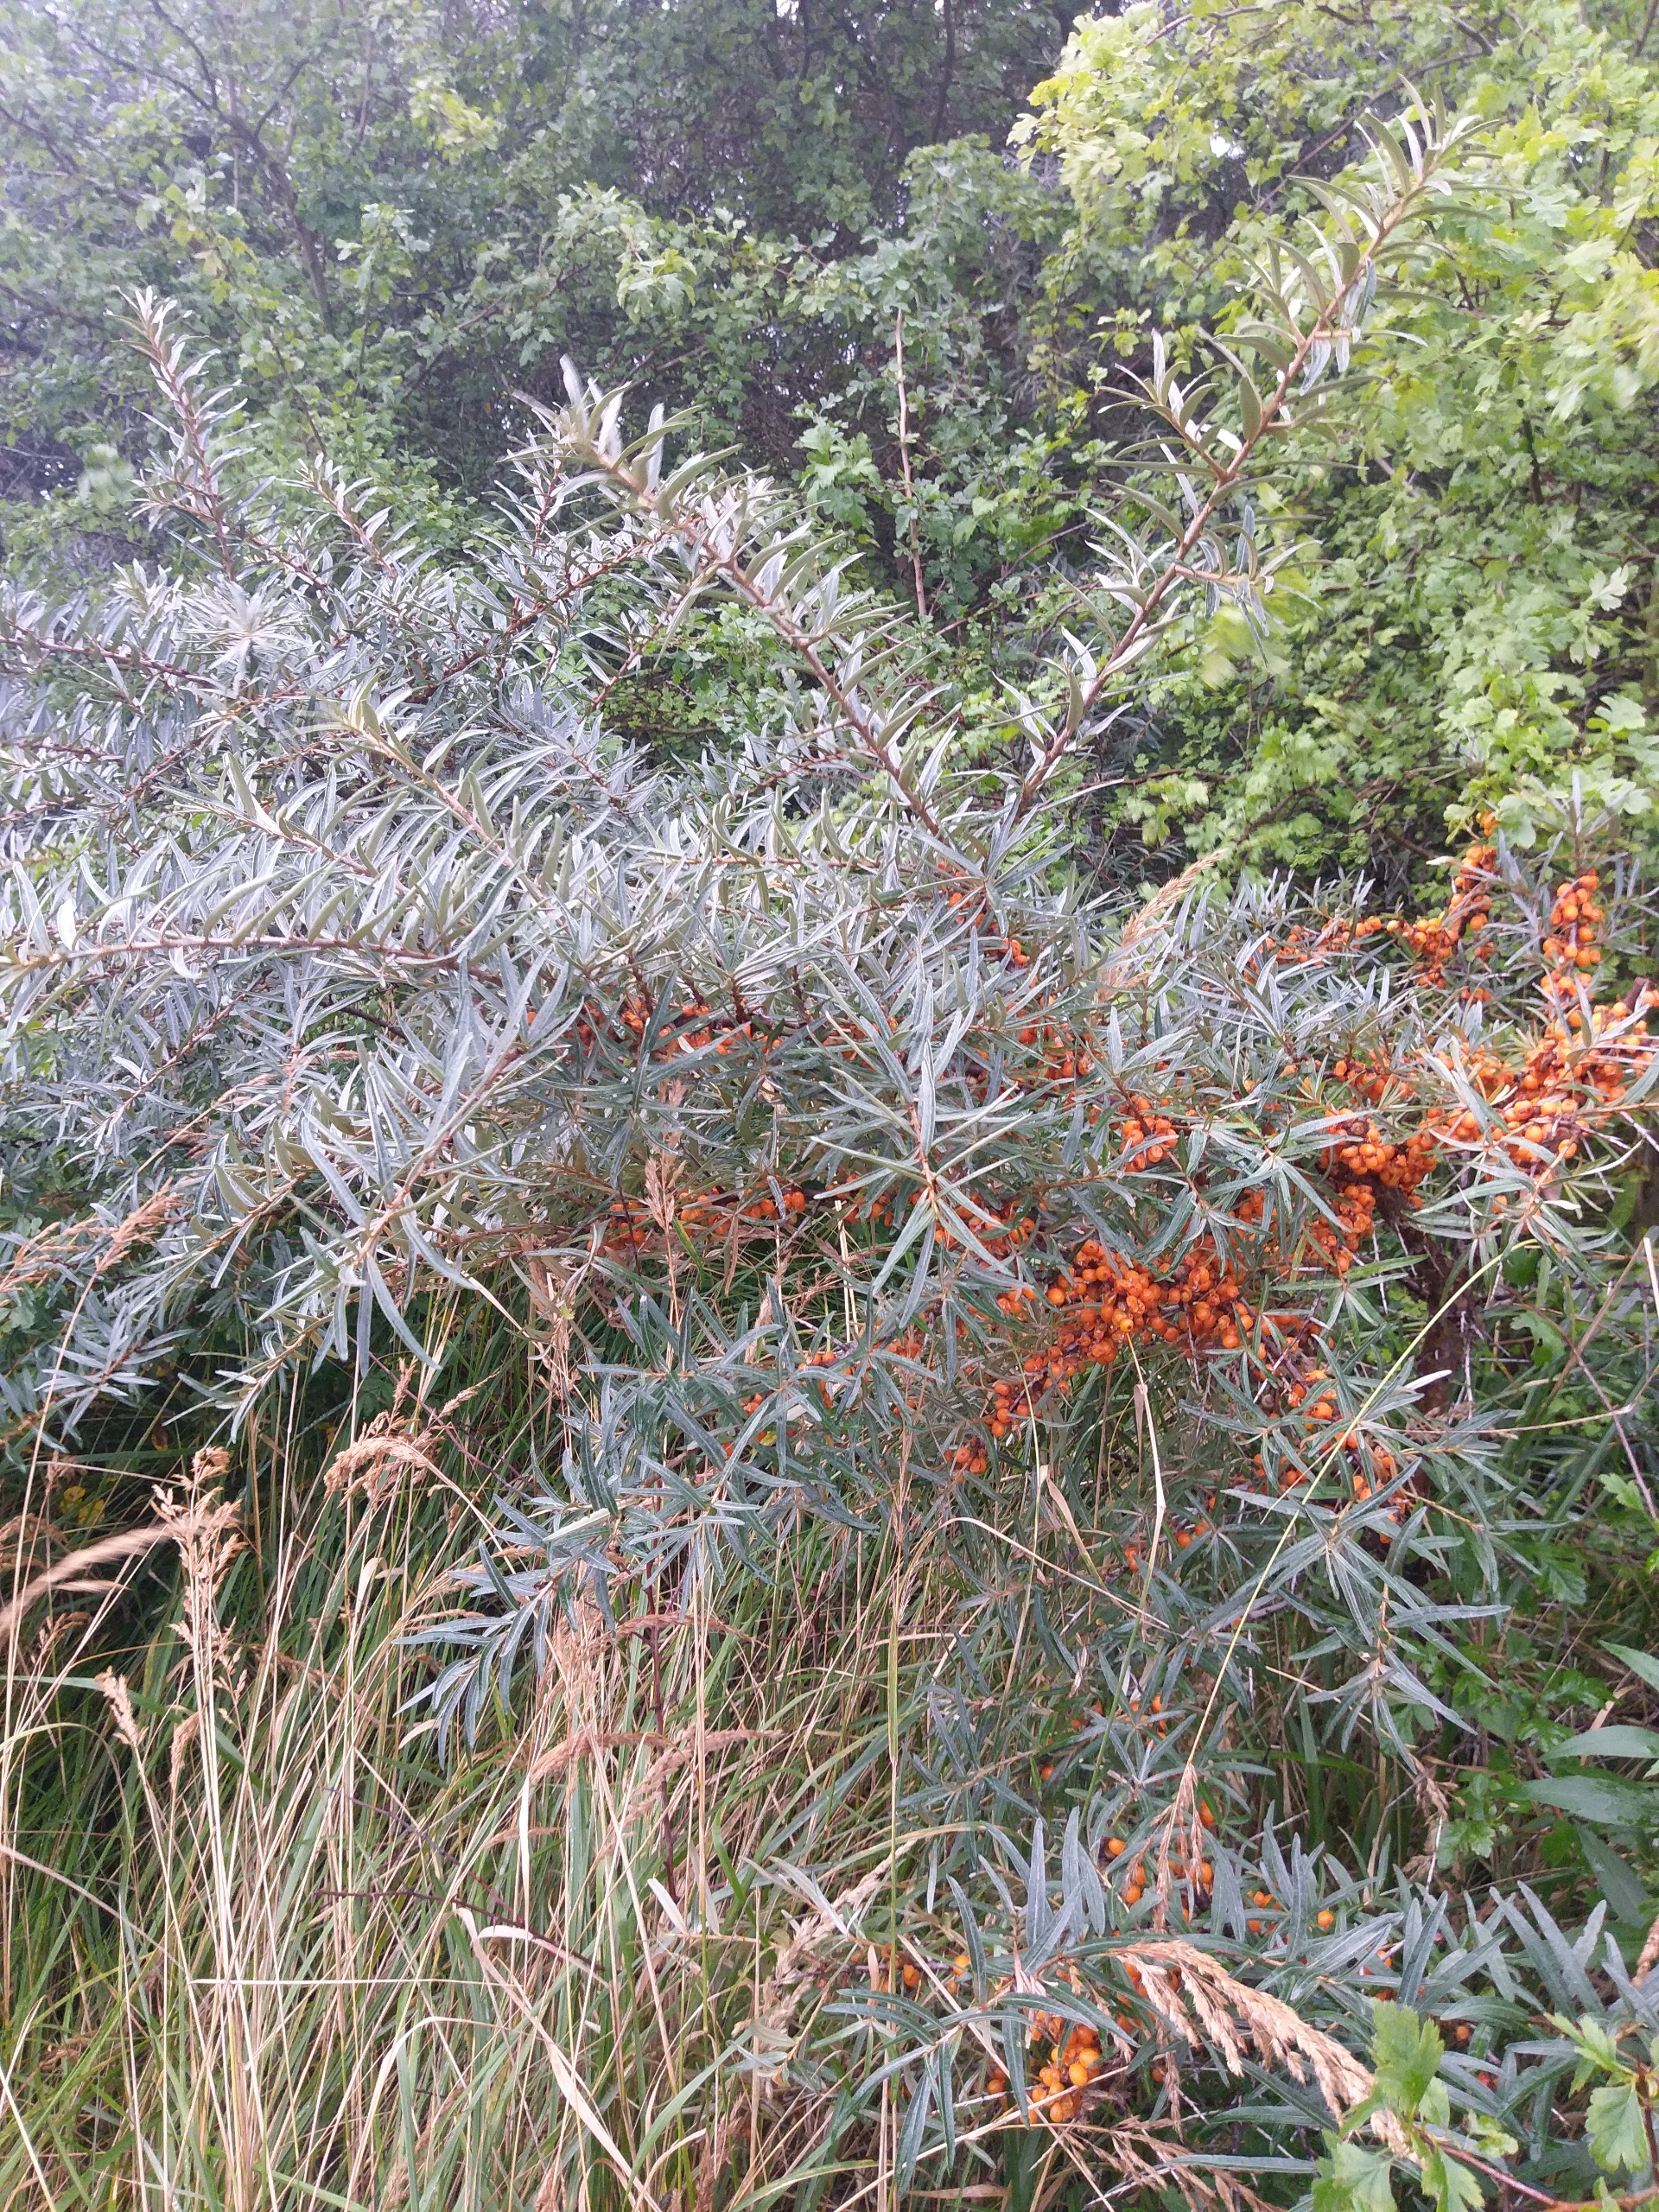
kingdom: Plantae
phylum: Tracheophyta
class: Magnoliopsida
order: Rosales
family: Elaeagnaceae
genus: Hippophae
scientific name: Hippophae rhamnoides
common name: Havtorn
